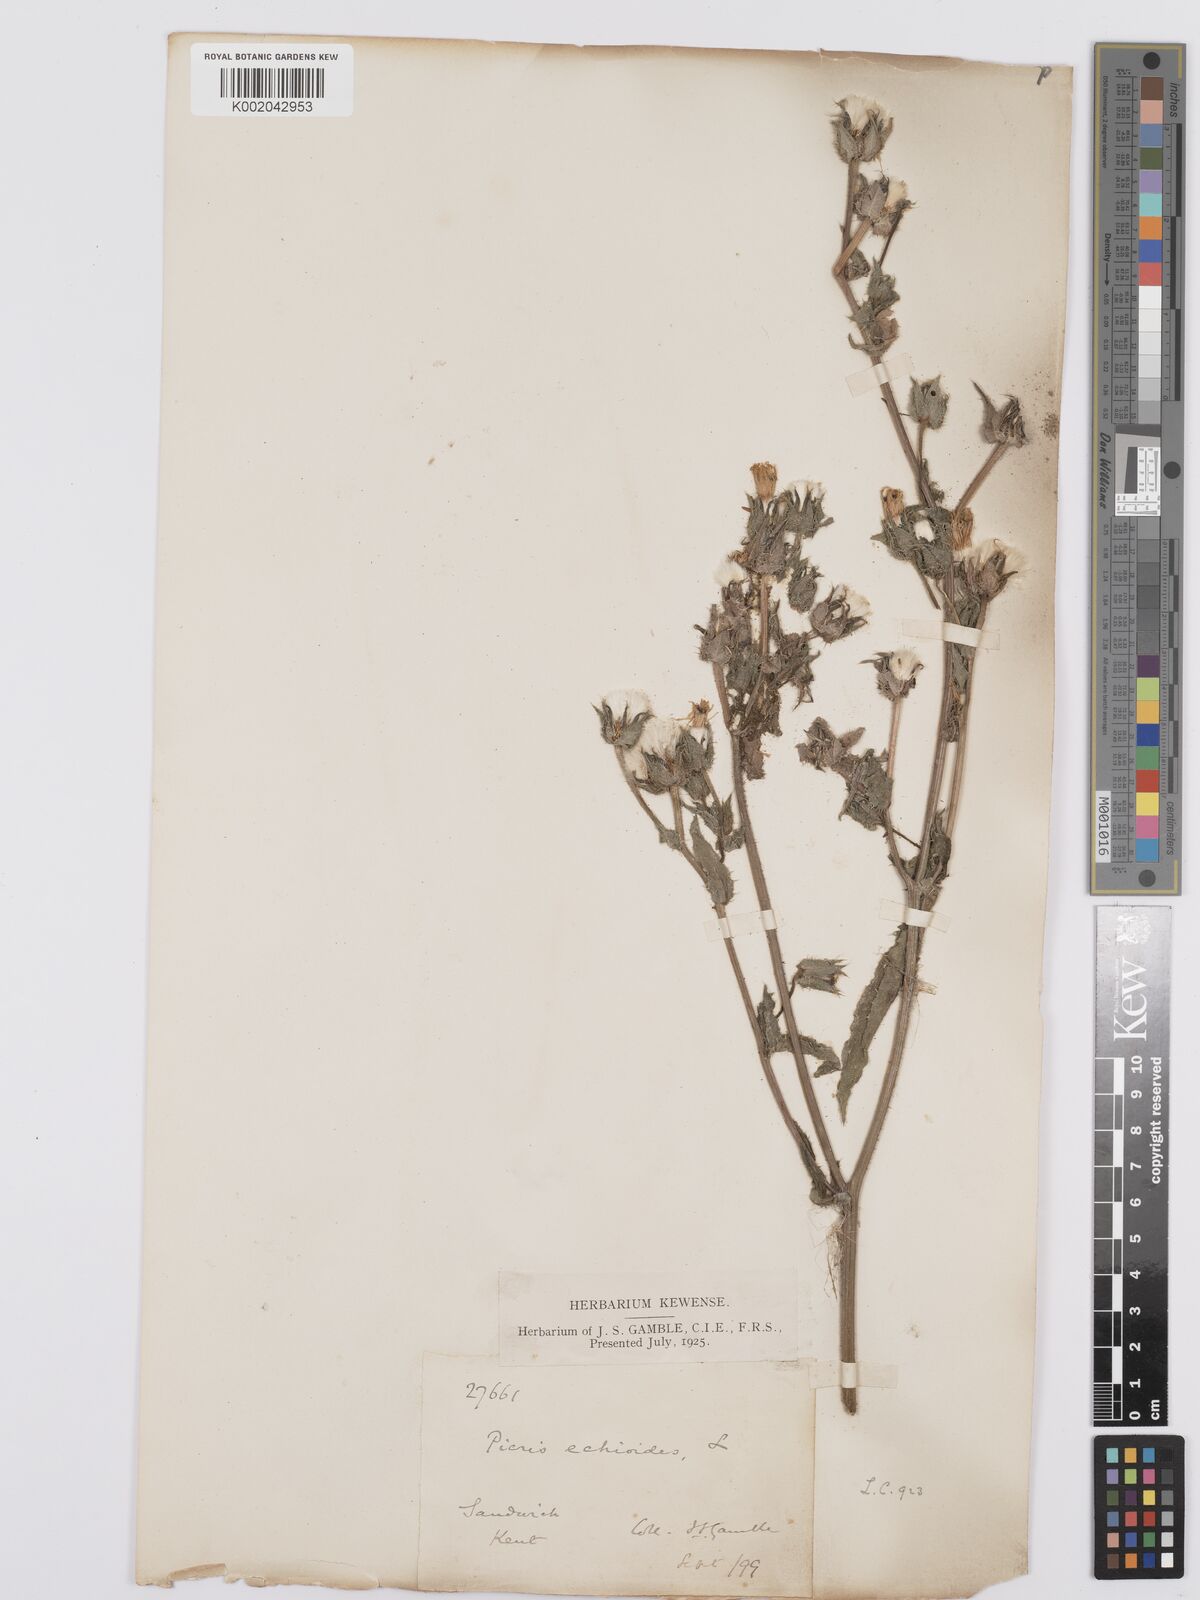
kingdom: Plantae
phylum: Tracheophyta
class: Magnoliopsida
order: Asterales
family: Asteraceae
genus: Helminthotheca
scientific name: Helminthotheca echioides
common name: Ox-tongue
